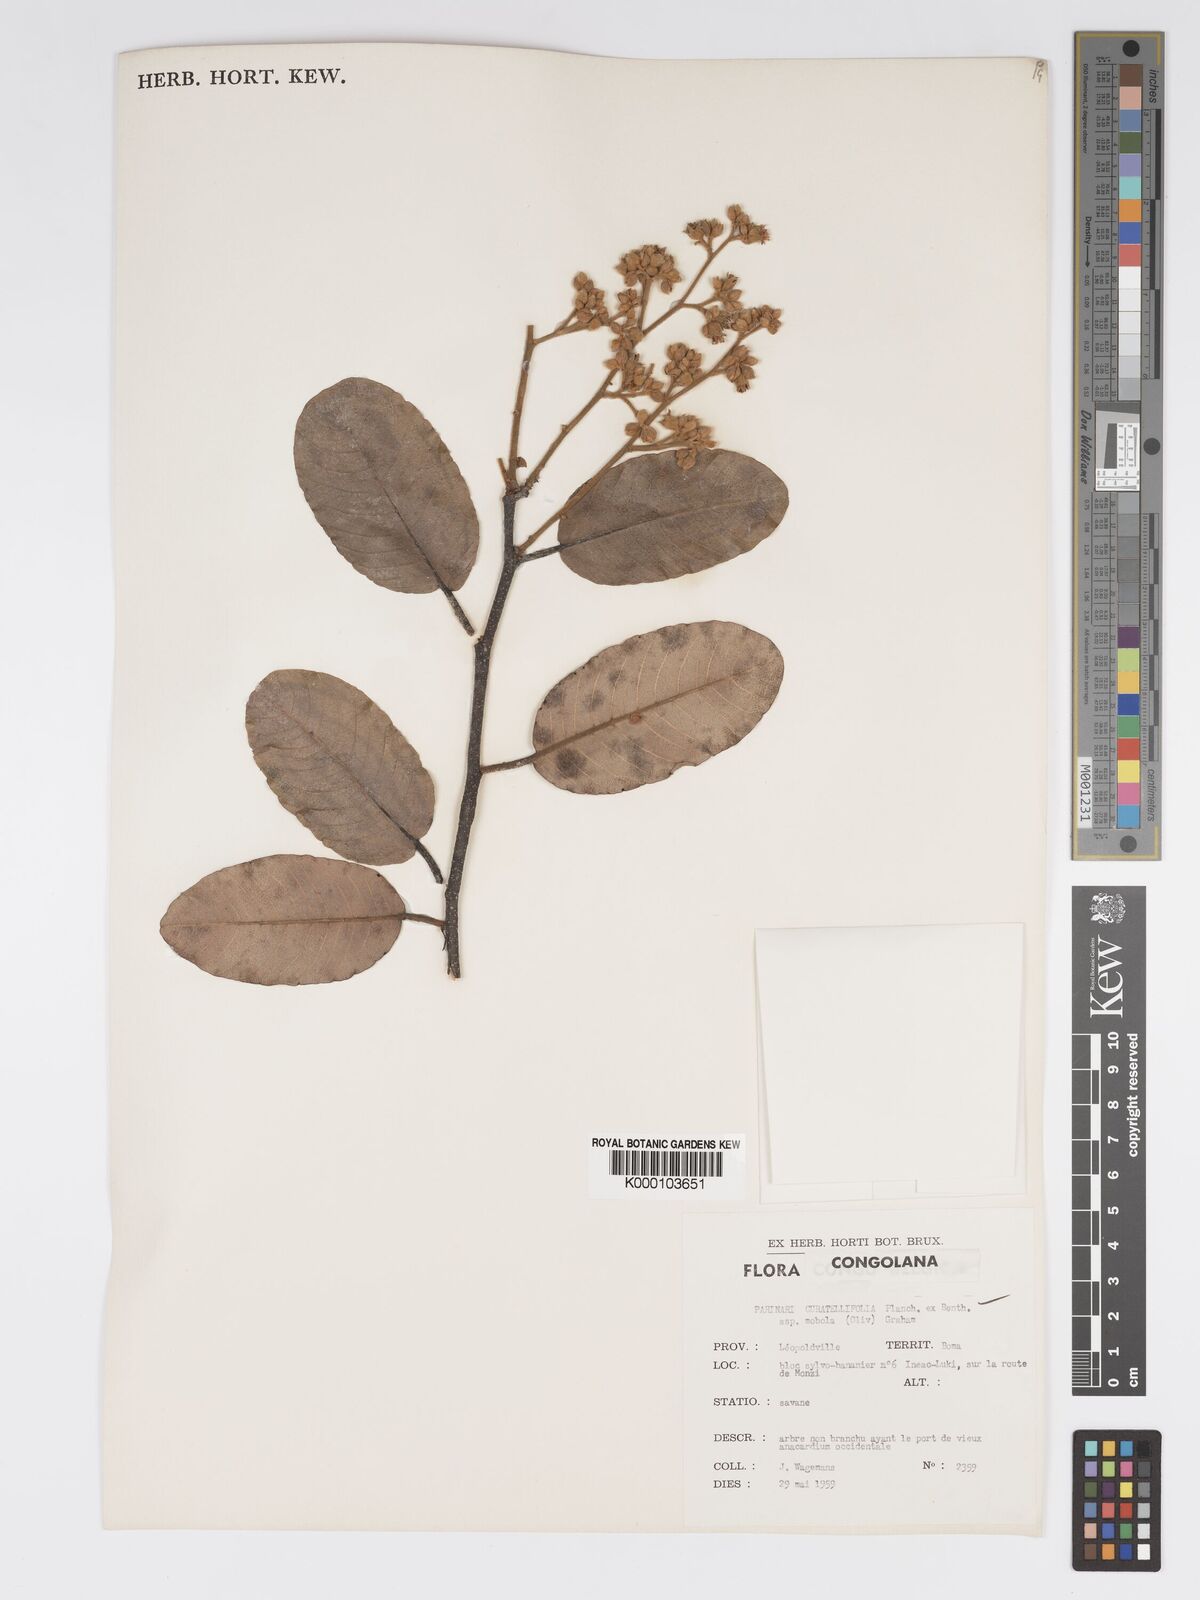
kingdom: Plantae
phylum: Tracheophyta
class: Magnoliopsida
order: Malpighiales
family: Chrysobalanaceae
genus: Parinari
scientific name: Parinari curatellifolia
